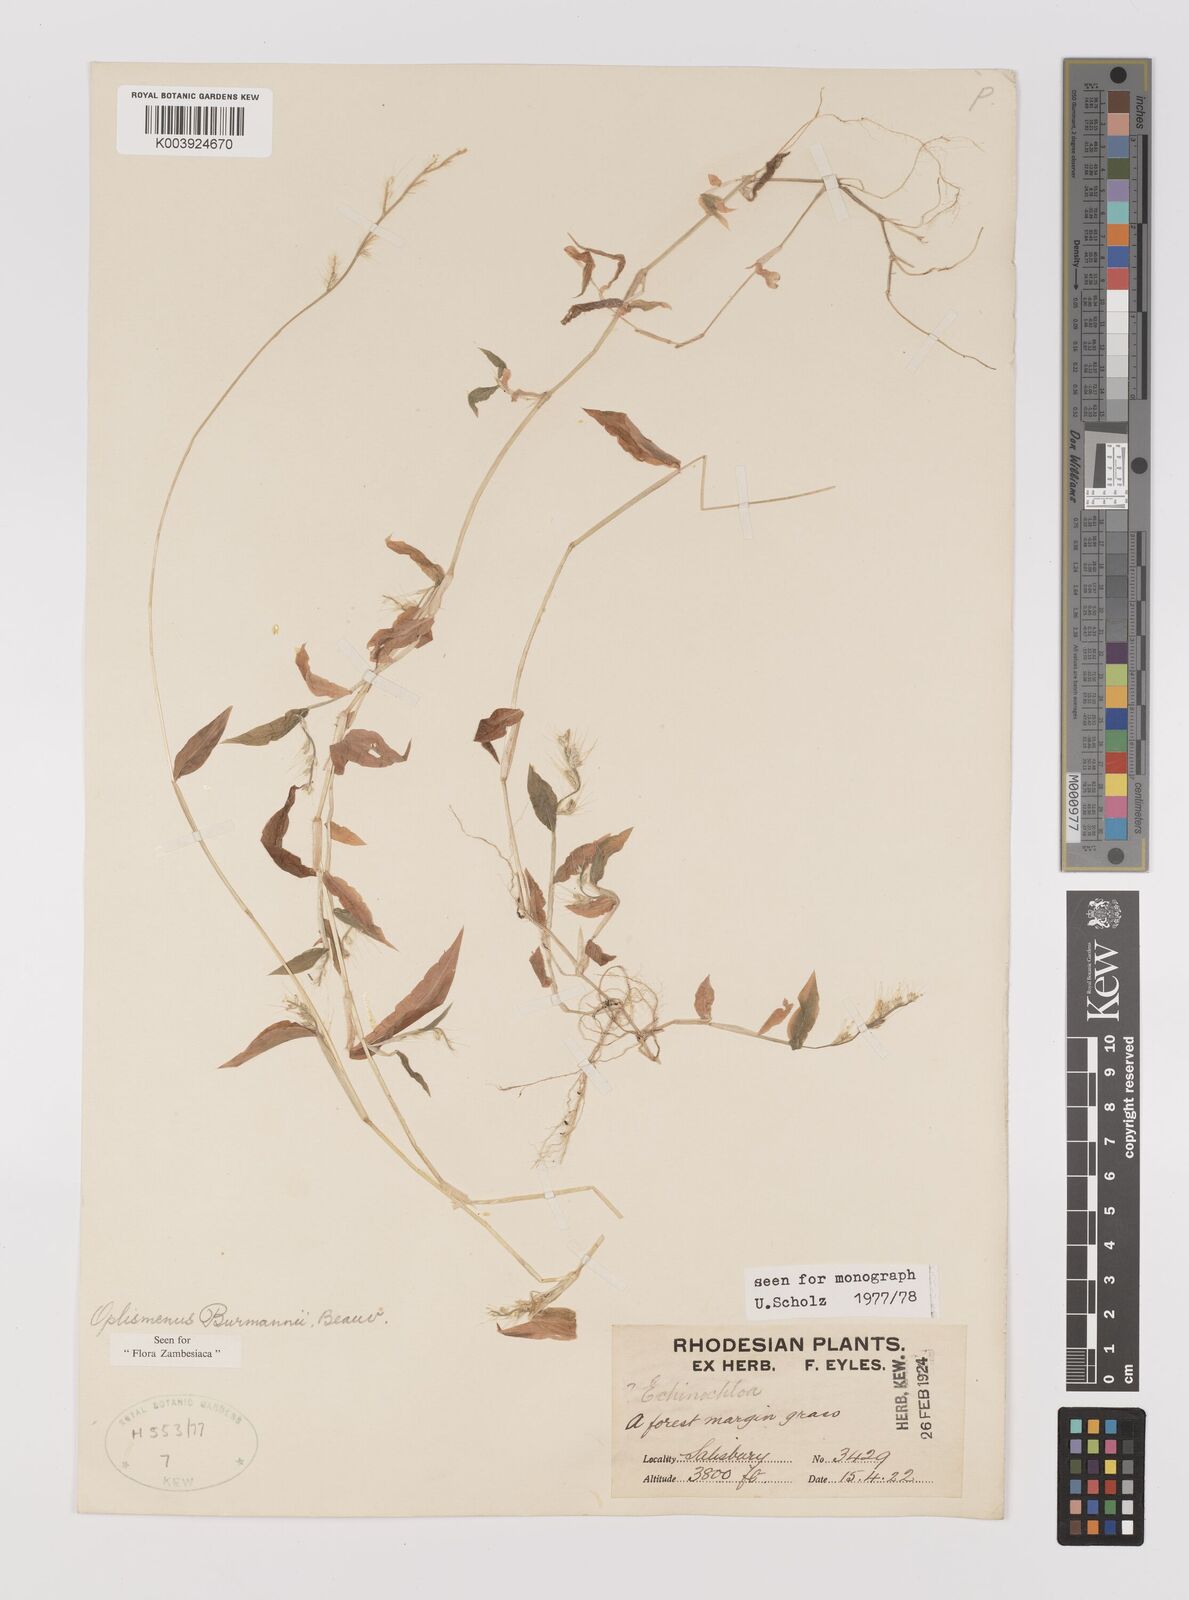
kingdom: Plantae
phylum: Tracheophyta
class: Liliopsida
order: Poales
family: Poaceae
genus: Oplismenus
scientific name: Oplismenus burmanni
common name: Burmann's basketgrass
